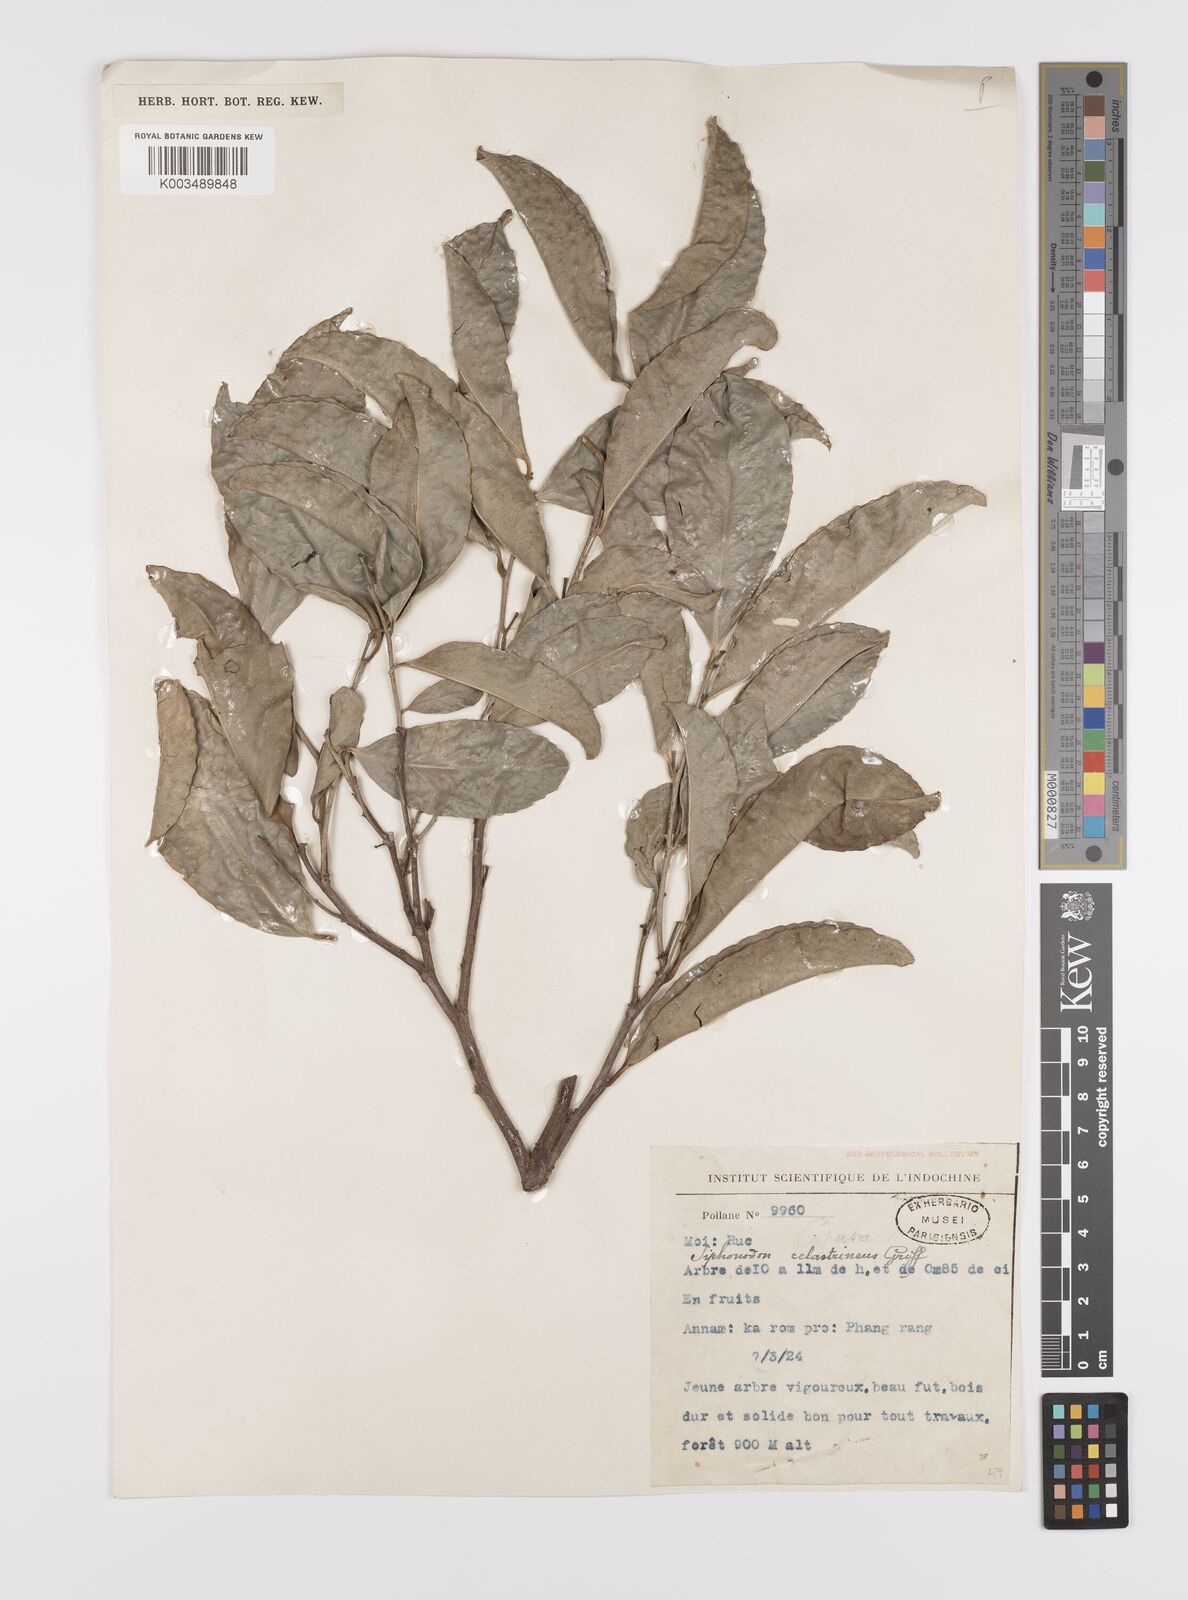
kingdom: Plantae
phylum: Tracheophyta
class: Magnoliopsida
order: Celastrales
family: Celastraceae
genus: Siphonodon
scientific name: Siphonodon celastrineus
